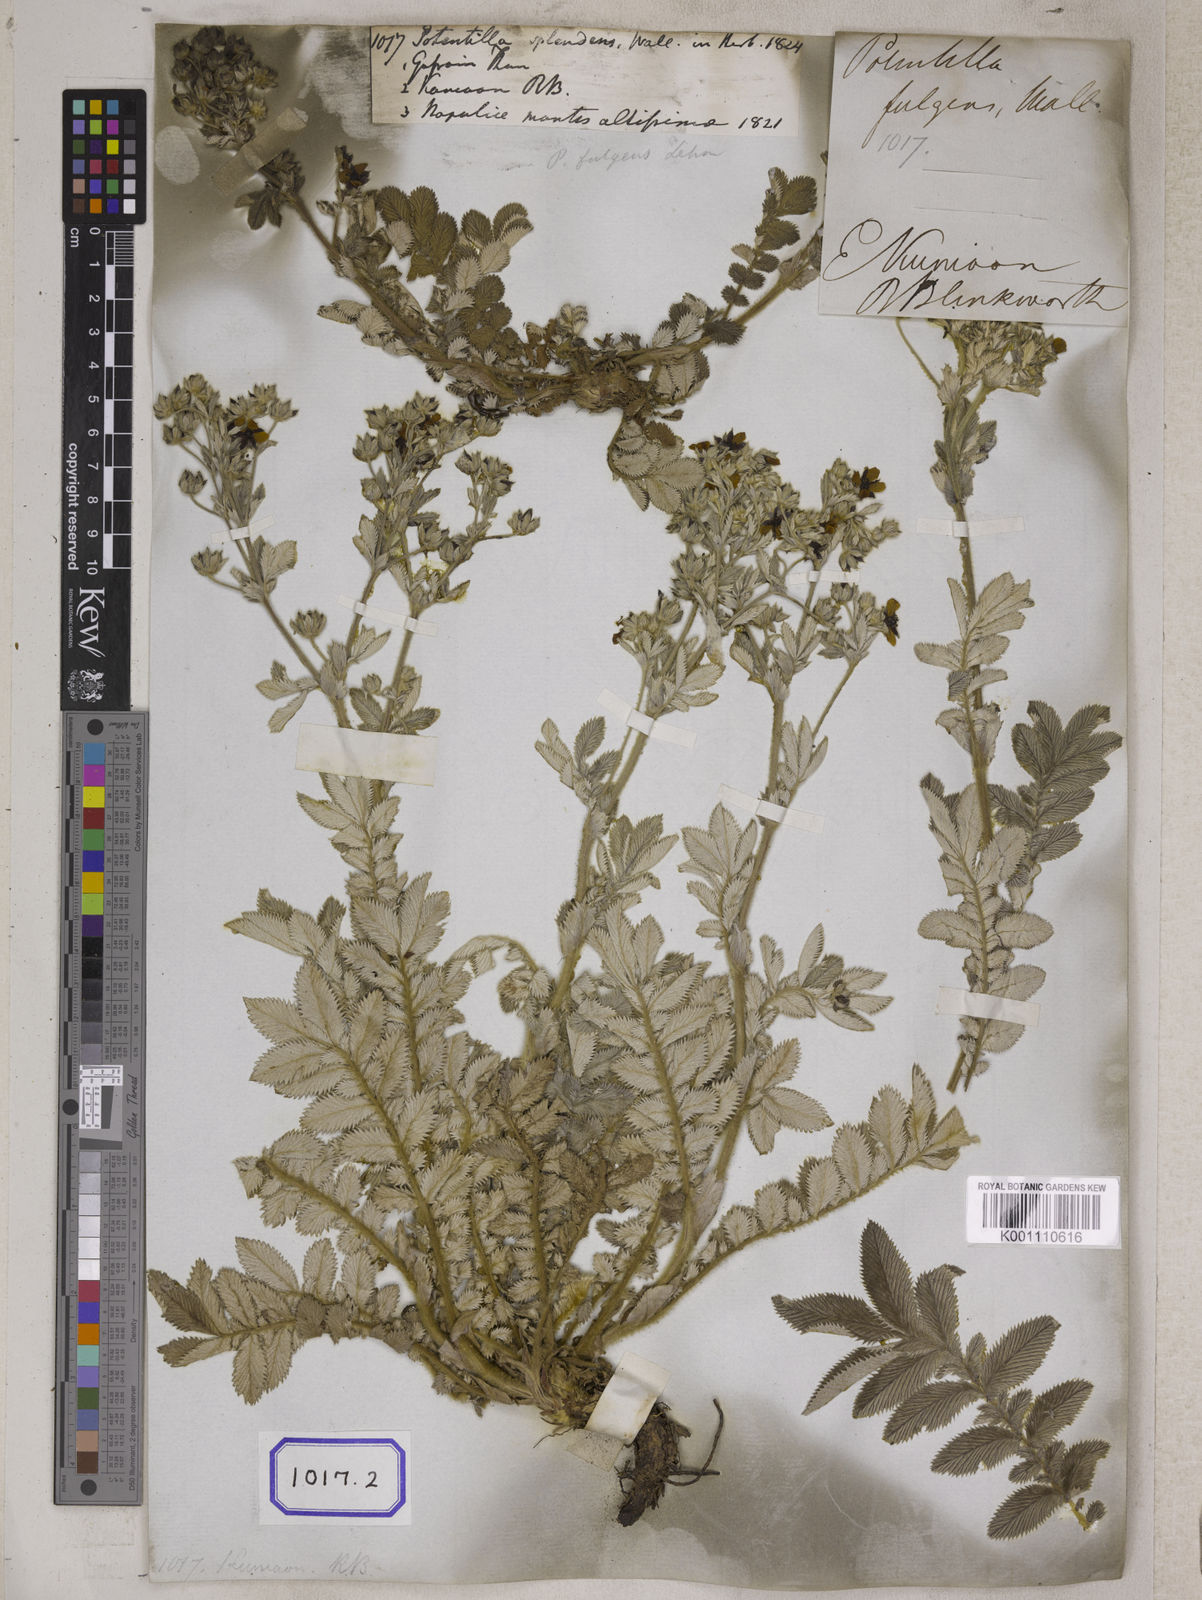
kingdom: Plantae
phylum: Tracheophyta
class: Magnoliopsida
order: Rosales
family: Rosaceae
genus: Potentilla
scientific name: Potentilla
